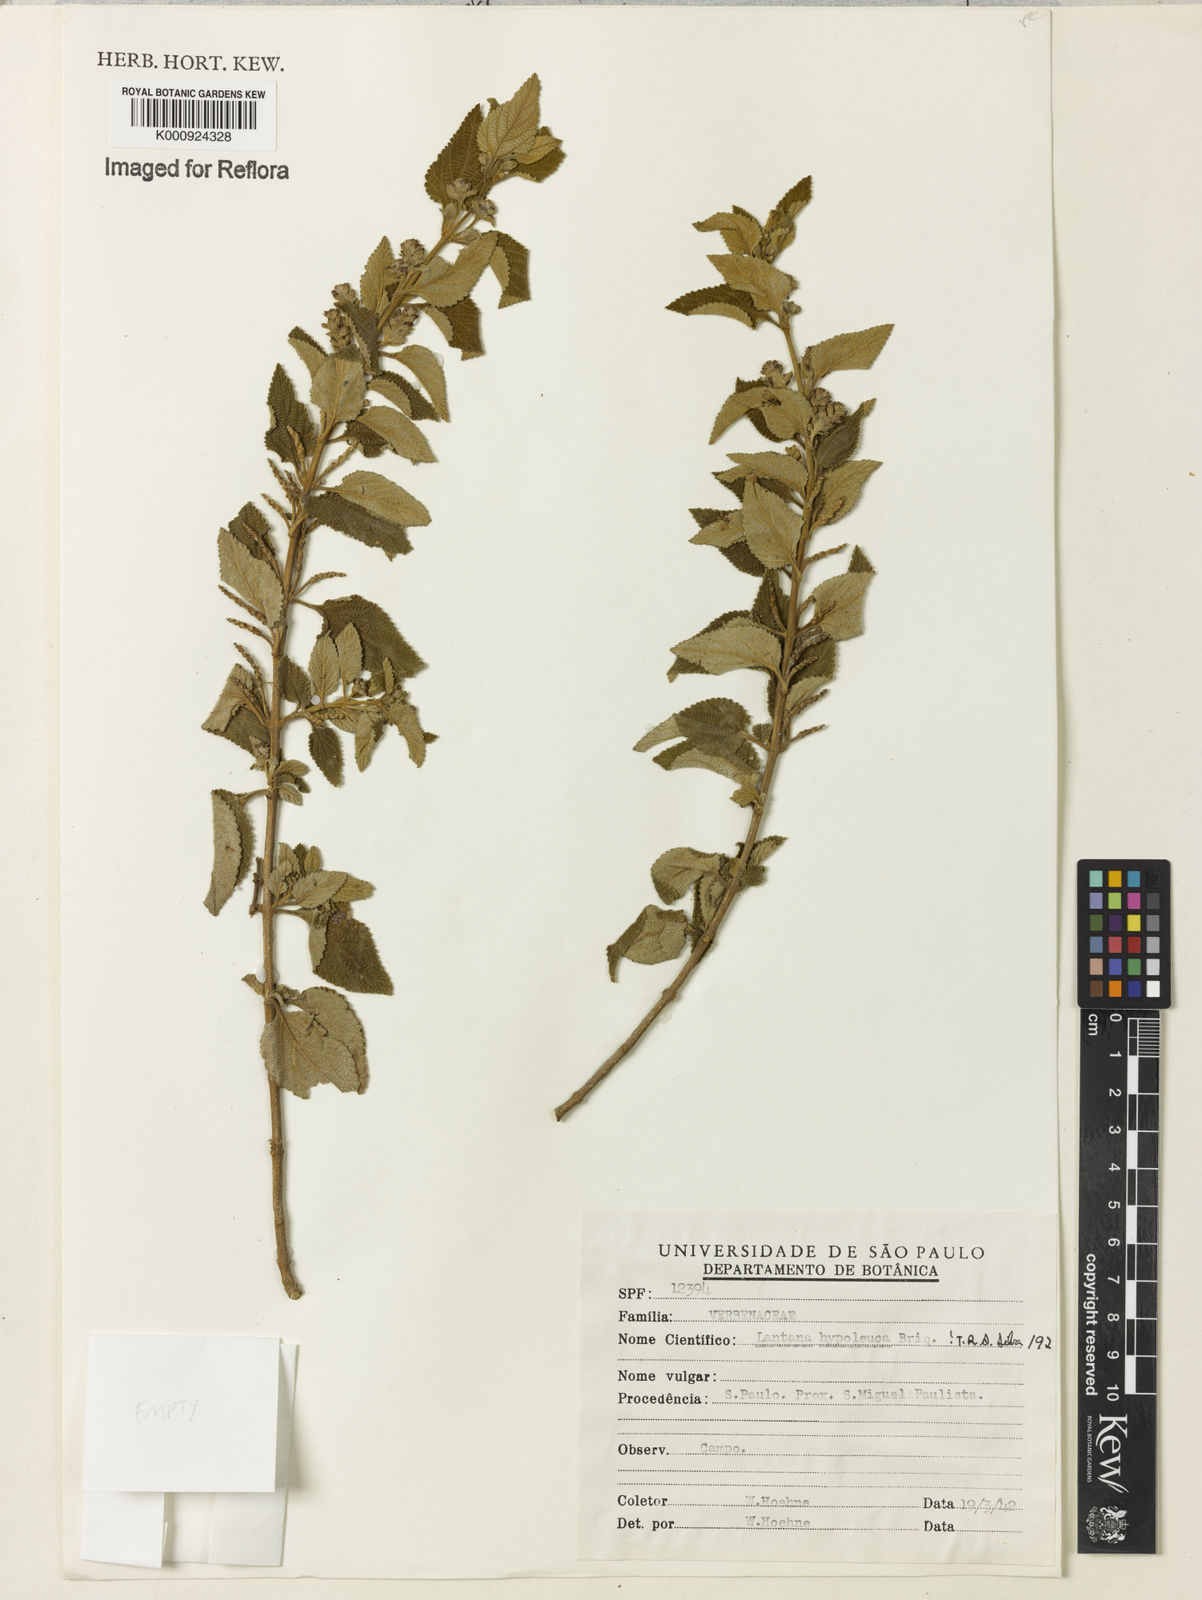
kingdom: Plantae
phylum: Tracheophyta
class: Magnoliopsida
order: Lamiales
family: Verbenaceae
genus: Lantana
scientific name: Lantana hypoleuca
